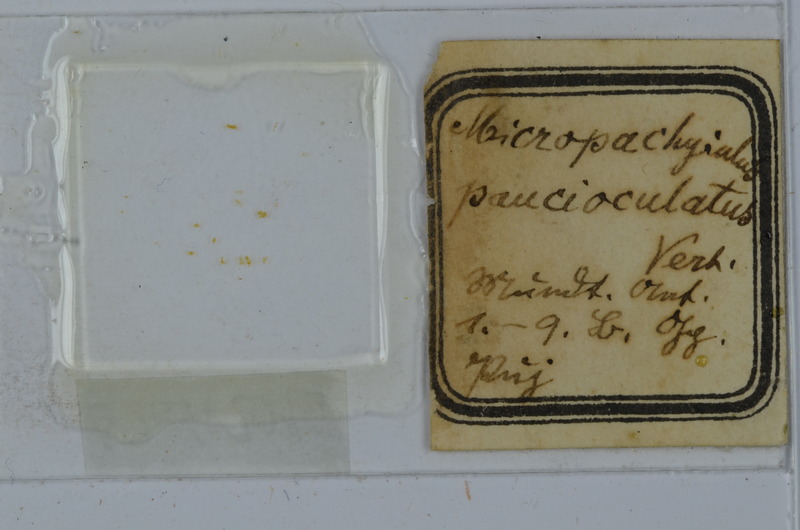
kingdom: Animalia
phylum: Arthropoda
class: Diplopoda
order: Julida
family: Julidae
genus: Micropachyiulus
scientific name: Micropachyiulus paucioculatus
